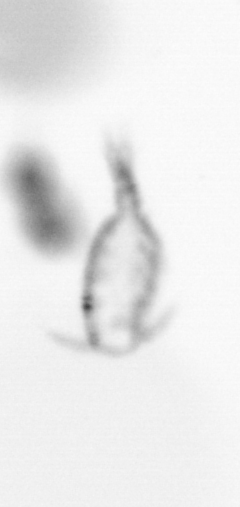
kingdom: Animalia
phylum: Arthropoda
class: Copepoda
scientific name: Copepoda
